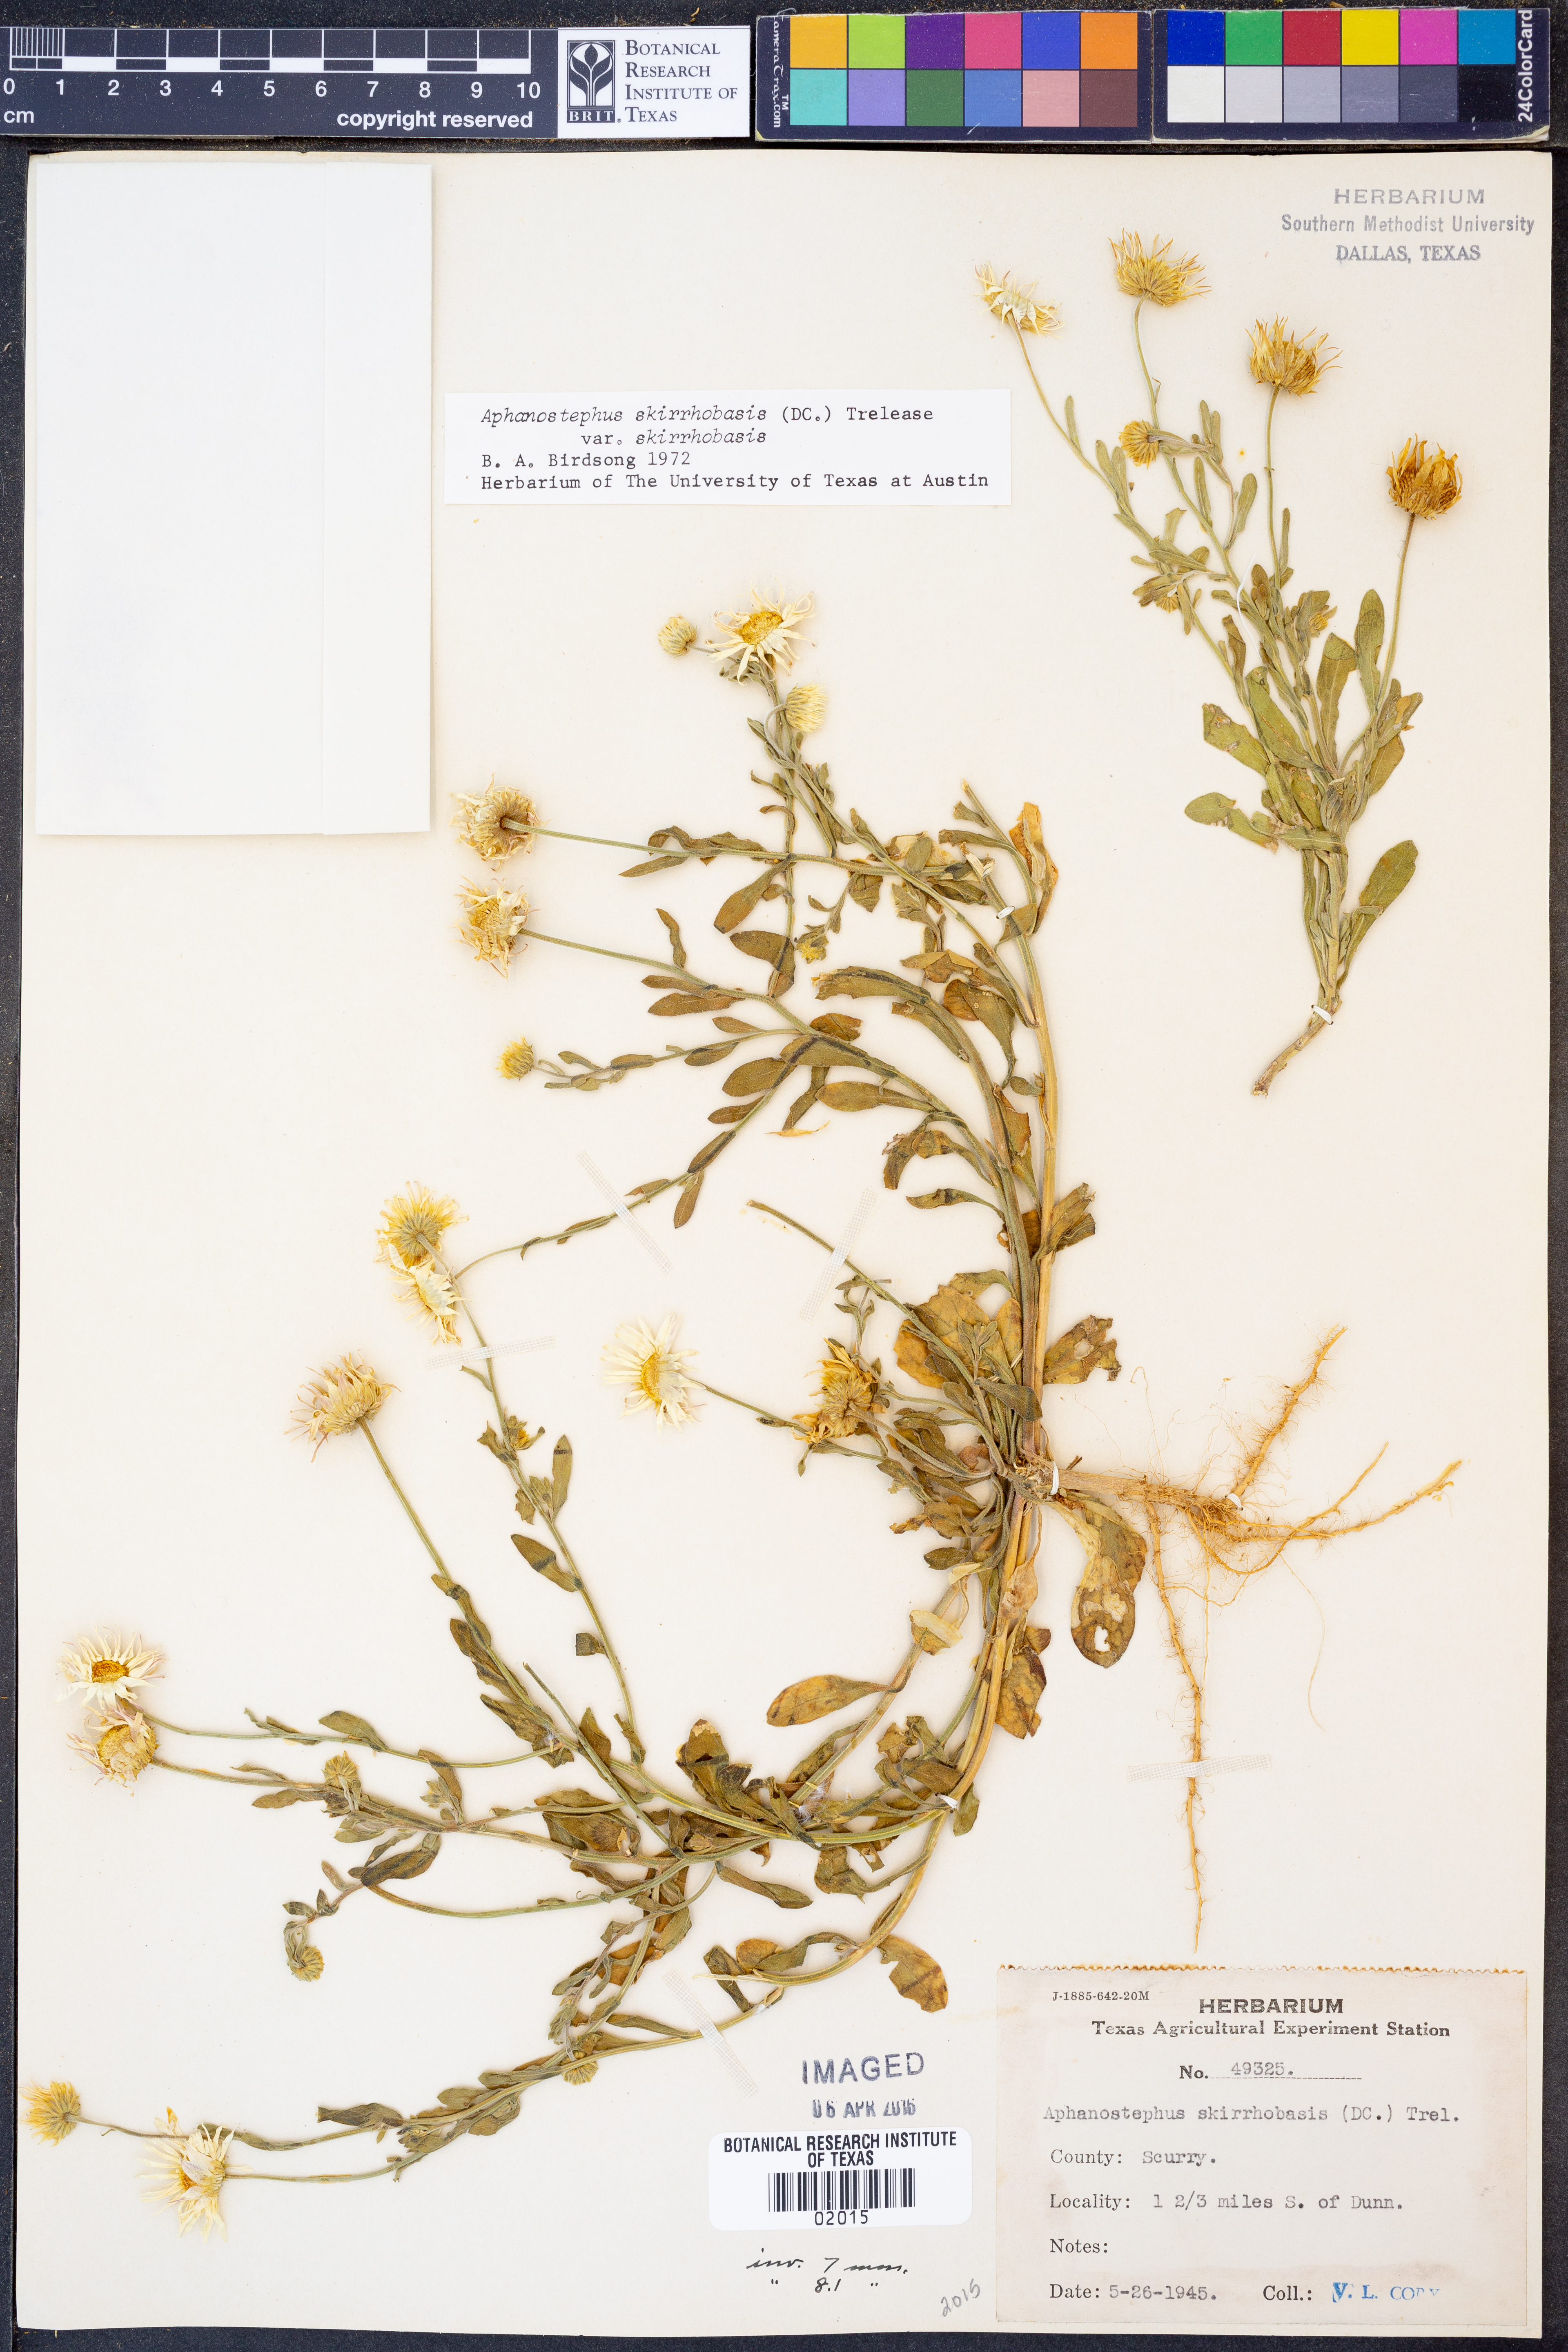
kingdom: Plantae
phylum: Tracheophyta
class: Magnoliopsida
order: Asterales
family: Asteraceae
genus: Aphanostephus
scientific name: Aphanostephus skirrhobasis
